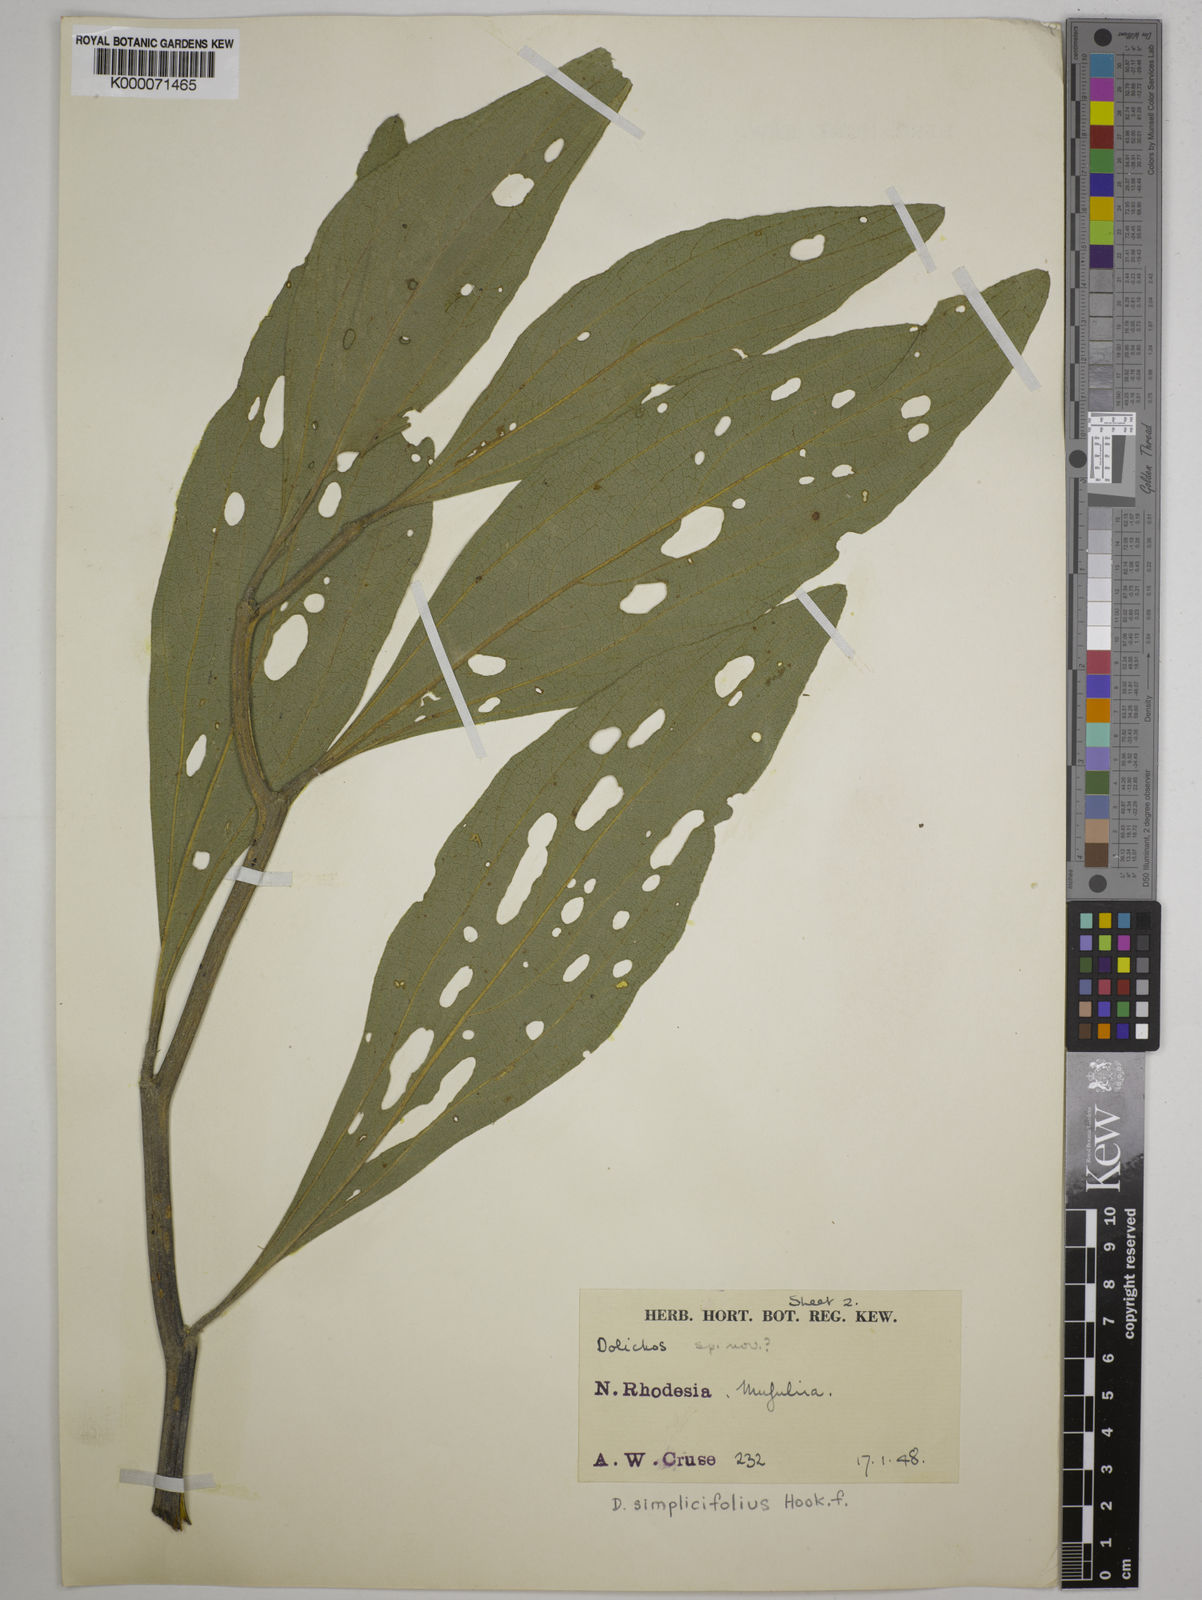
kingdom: Plantae
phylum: Tracheophyta
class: Magnoliopsida
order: Fabales
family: Fabaceae
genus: Dolichos
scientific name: Dolichos simplicifolius
